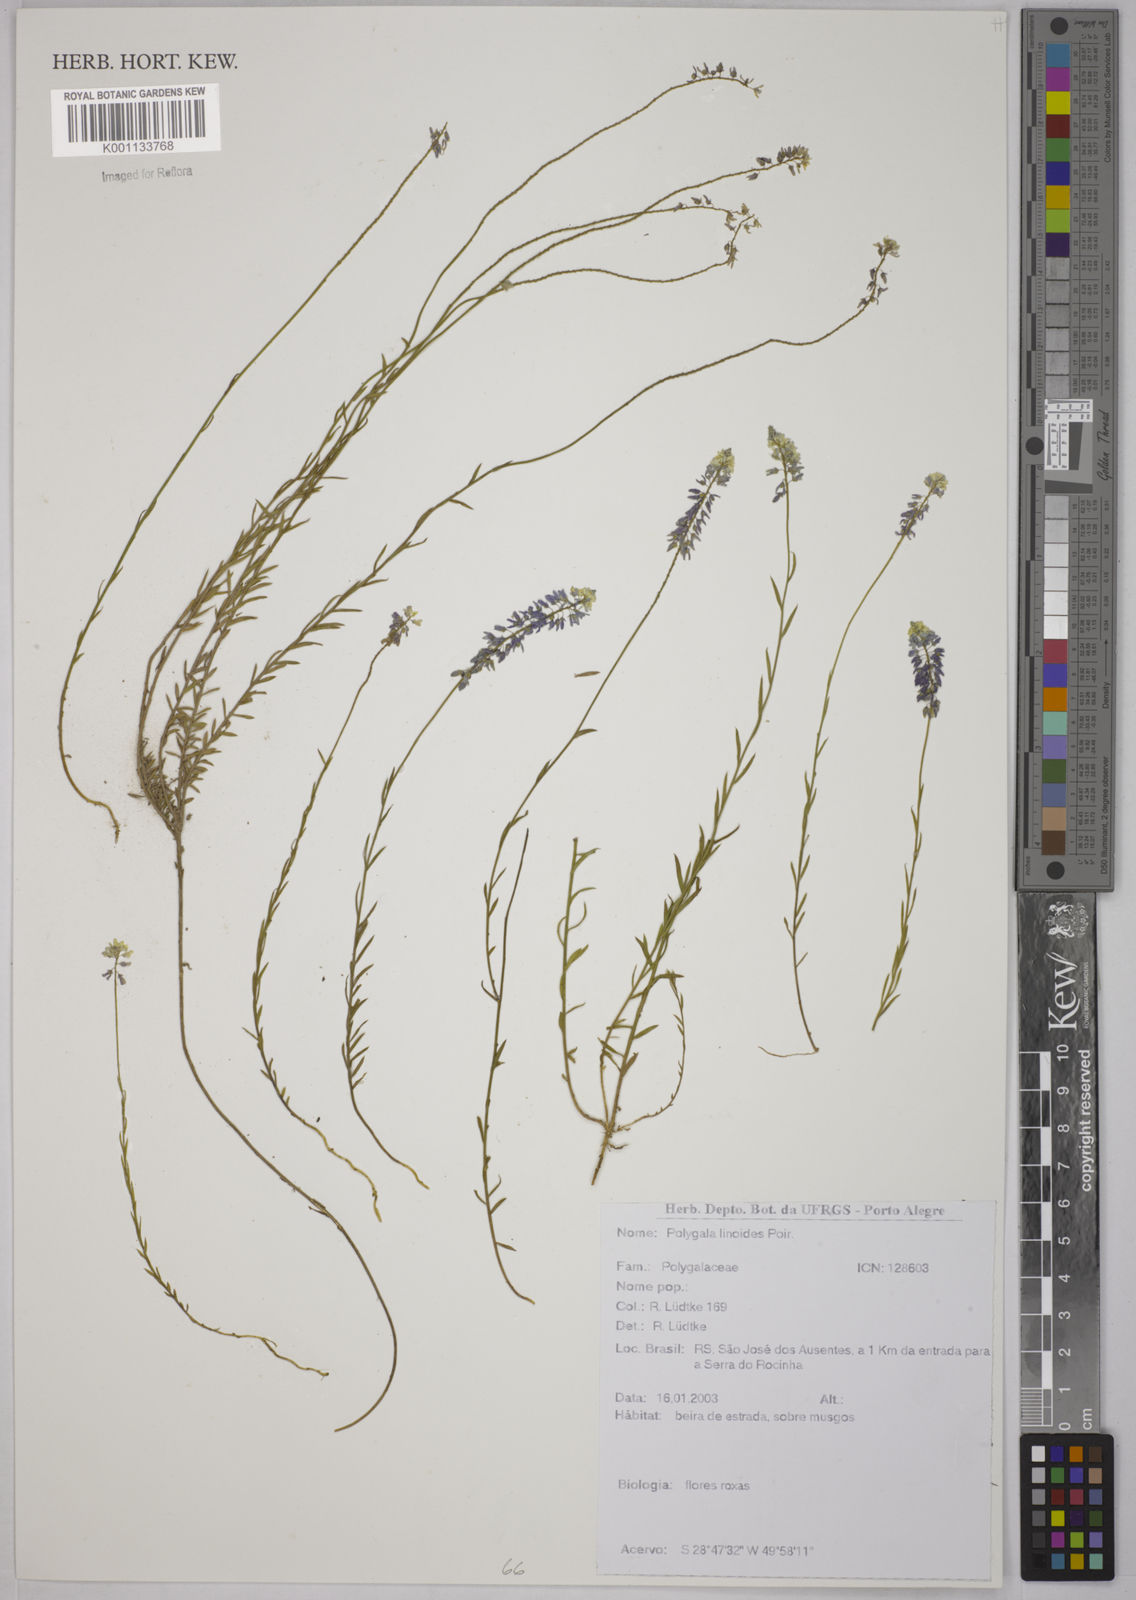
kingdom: Plantae
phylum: Tracheophyta
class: Magnoliopsida
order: Fabales
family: Polygalaceae
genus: Polygala
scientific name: Polygala linoides
